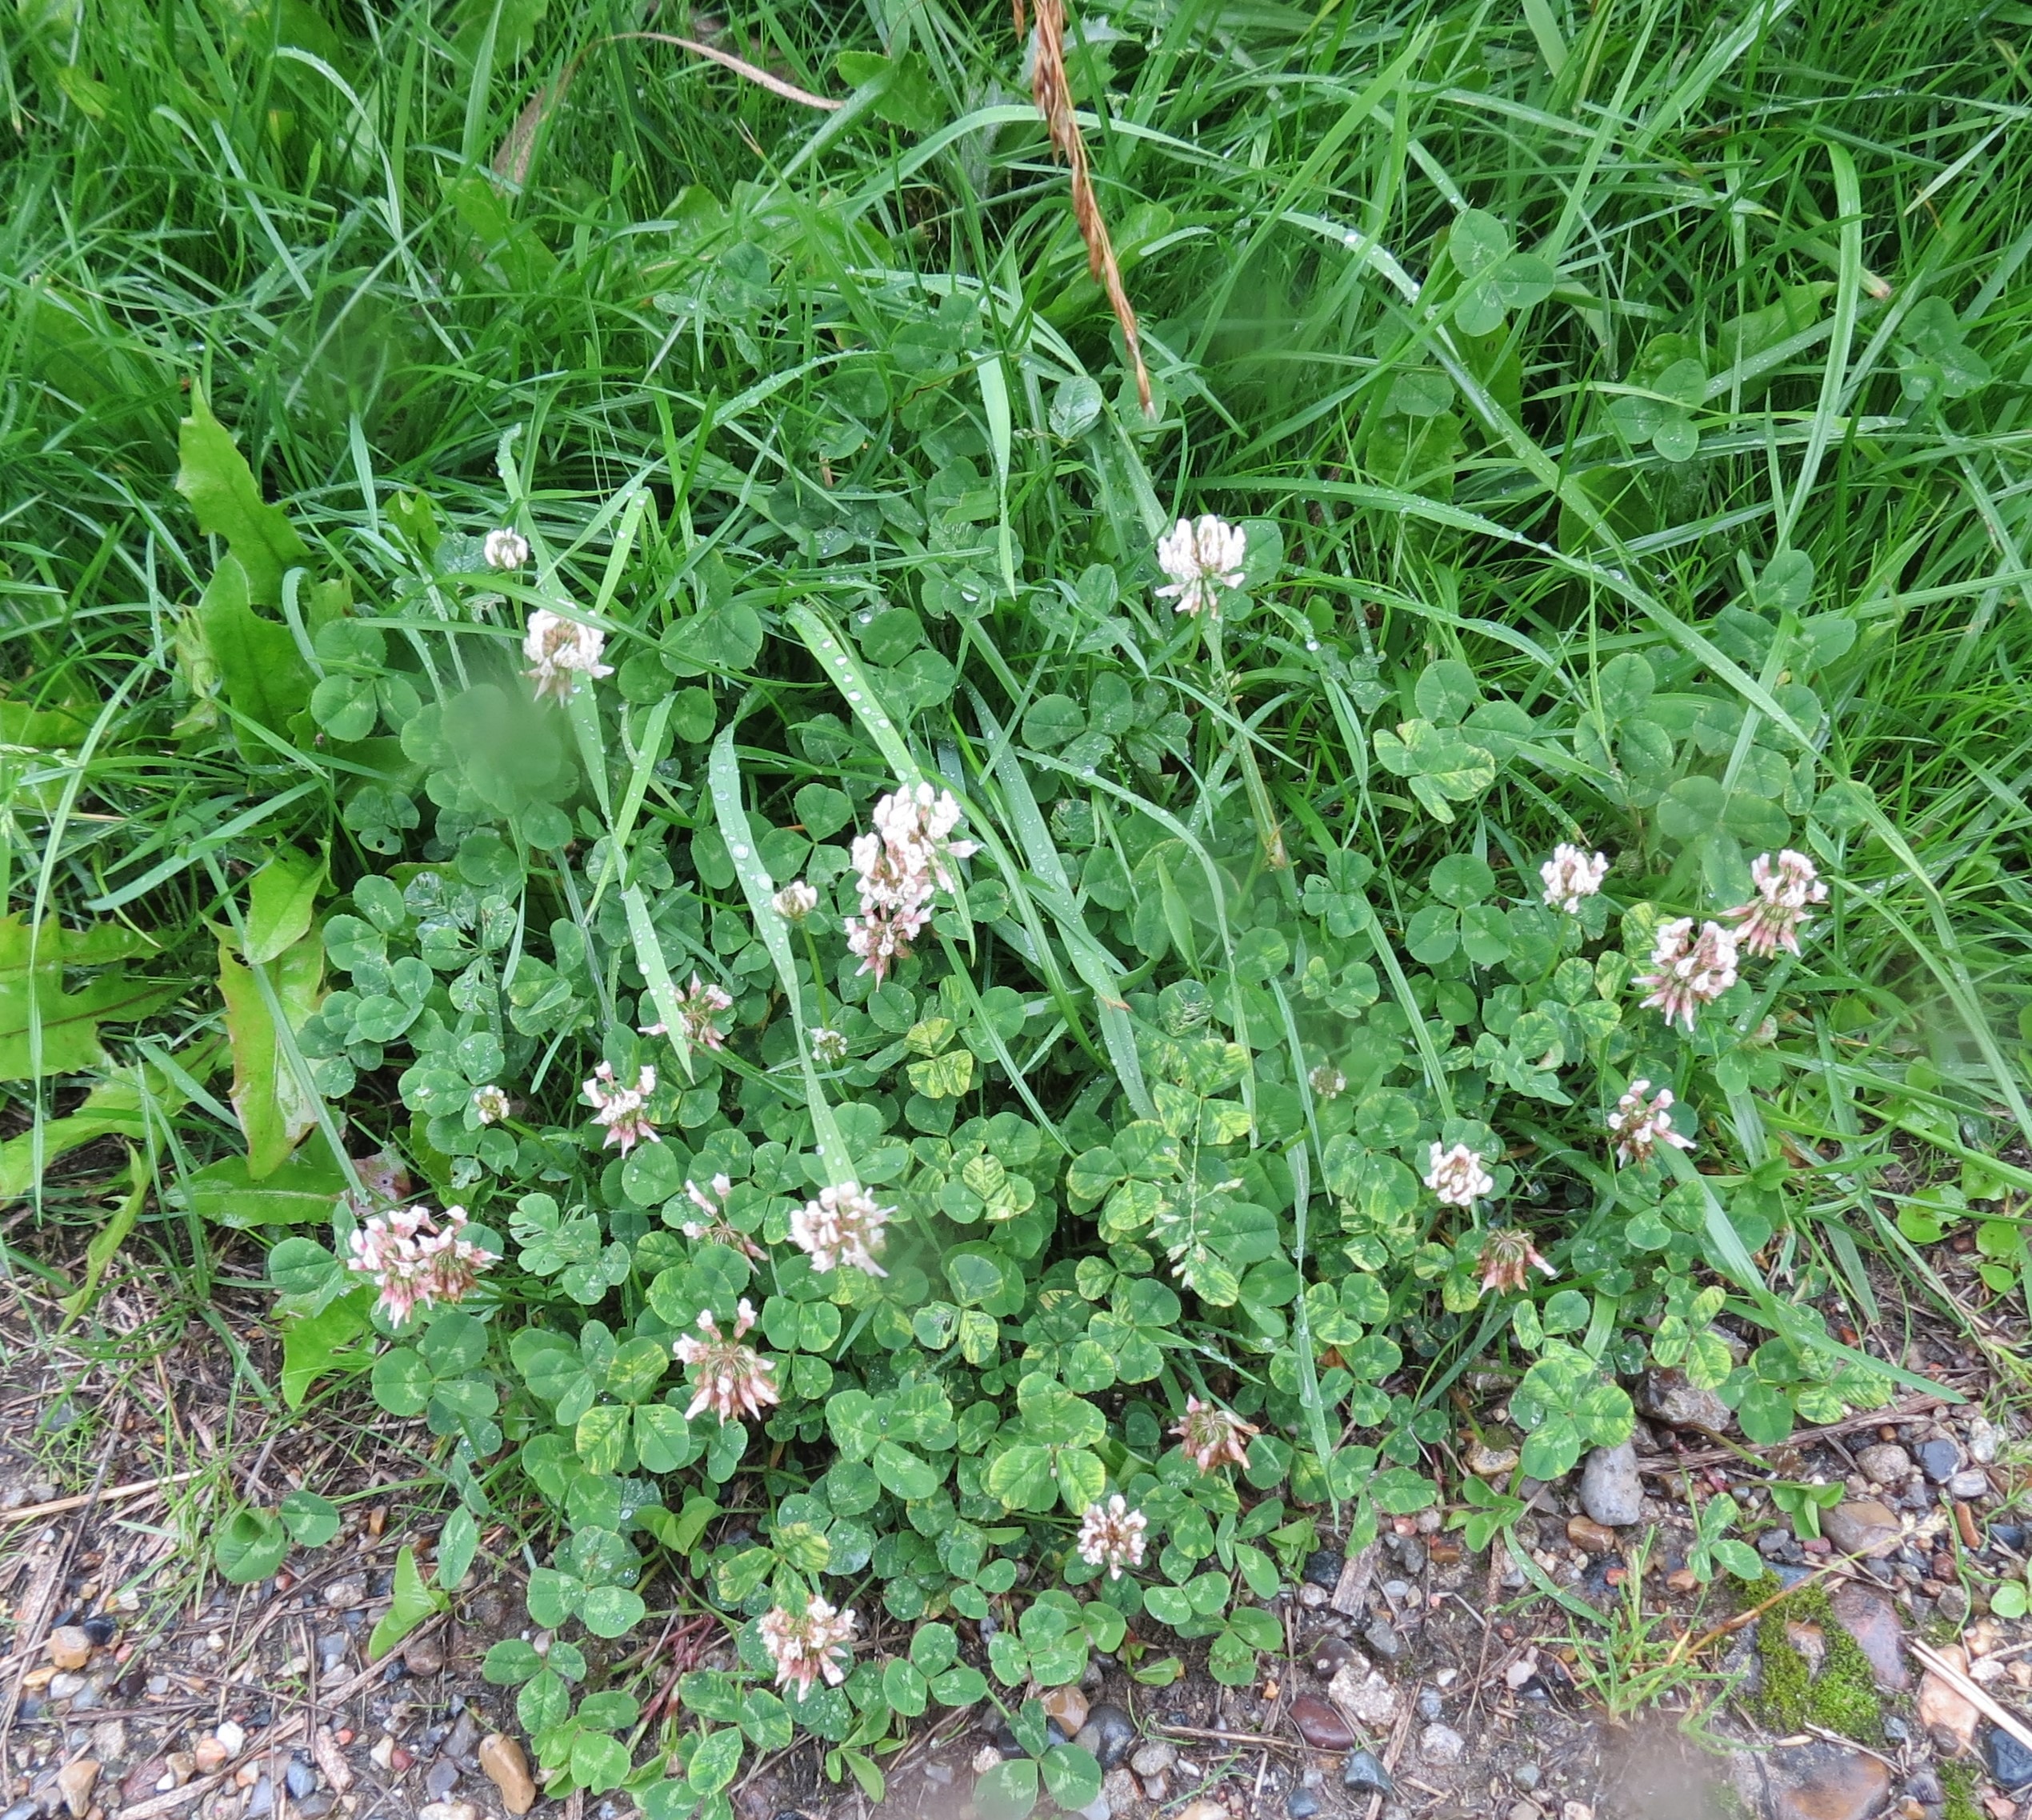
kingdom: Plantae
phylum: Tracheophyta
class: Magnoliopsida
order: Fabales
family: Fabaceae
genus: Trifolium
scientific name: Trifolium repens
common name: Hvid-kløver
